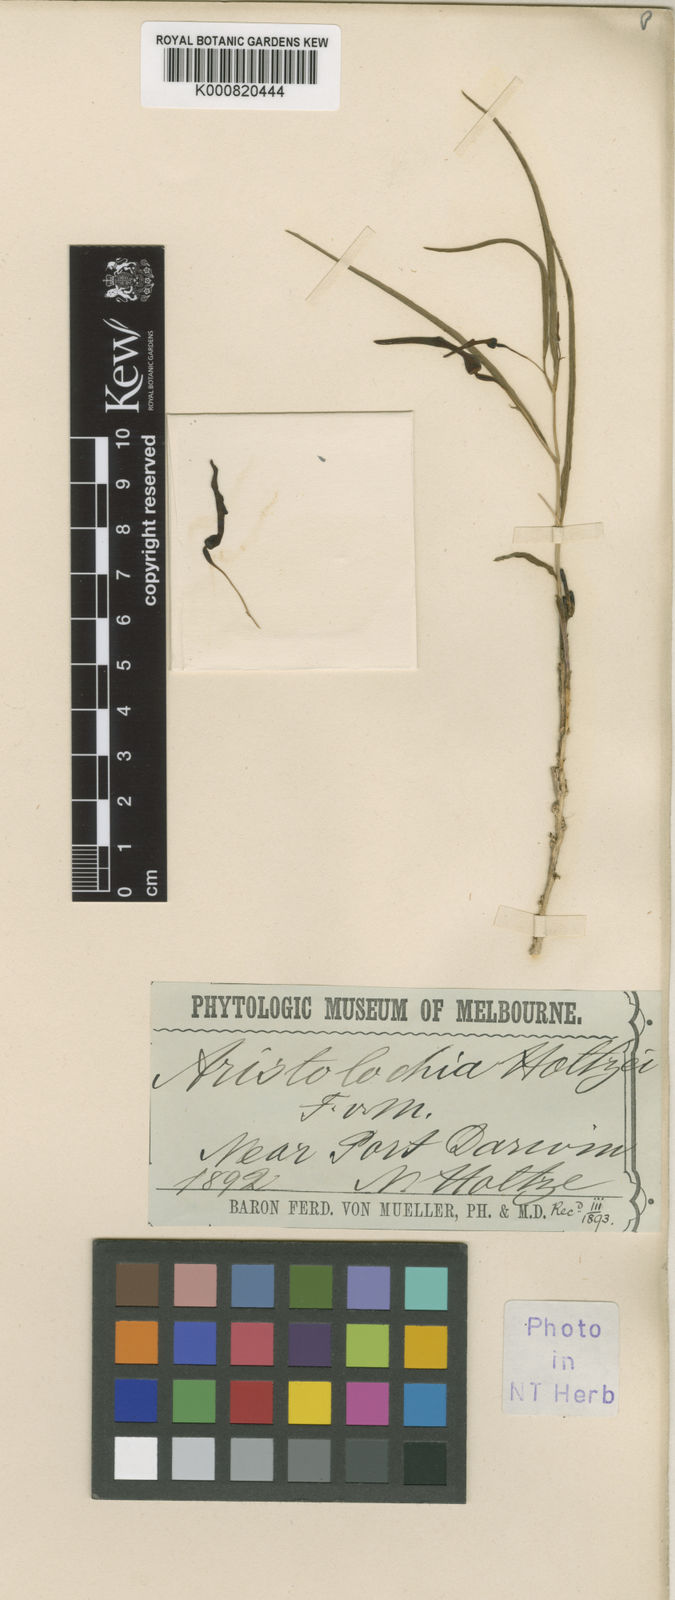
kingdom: Plantae
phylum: Tracheophyta
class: Magnoliopsida
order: Piperales
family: Aristolochiaceae
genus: Aristolochia
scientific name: Aristolochia holtzei
